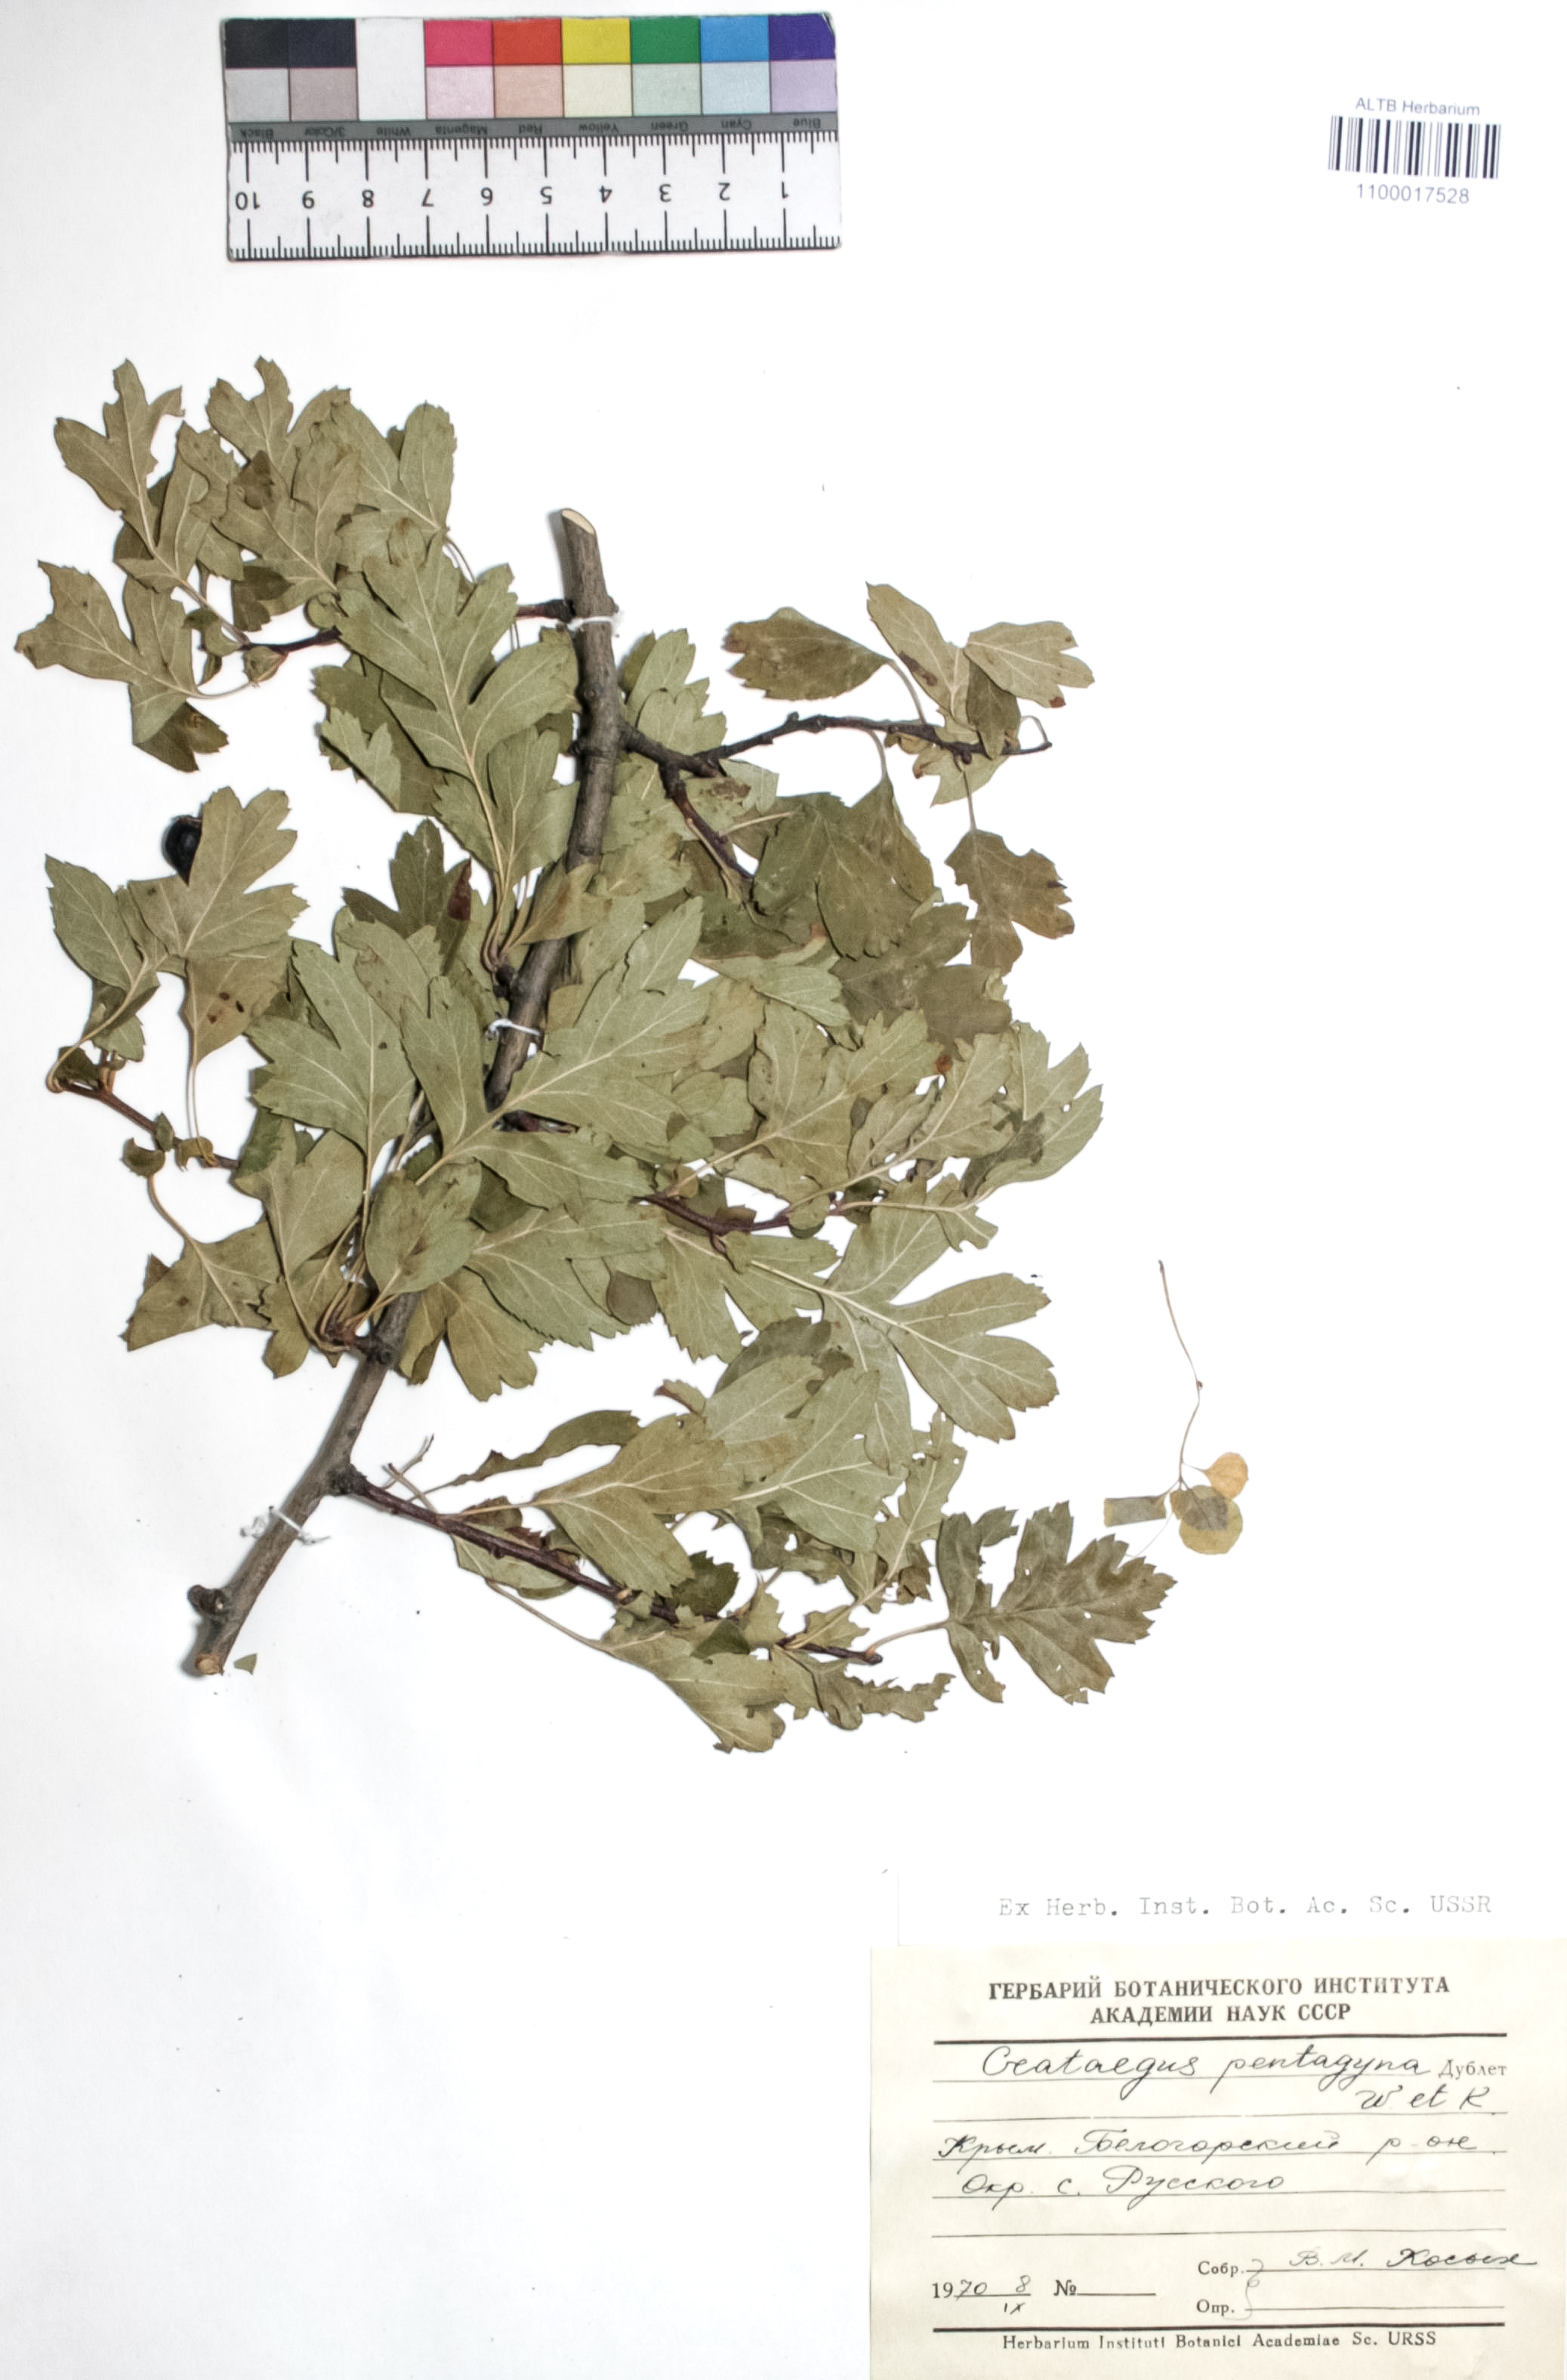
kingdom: Plantae
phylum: Tracheophyta
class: Magnoliopsida
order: Rosales
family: Rosaceae
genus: Crataegus
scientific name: Crataegus pentagyna
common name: Small-flowered black hawthorn
